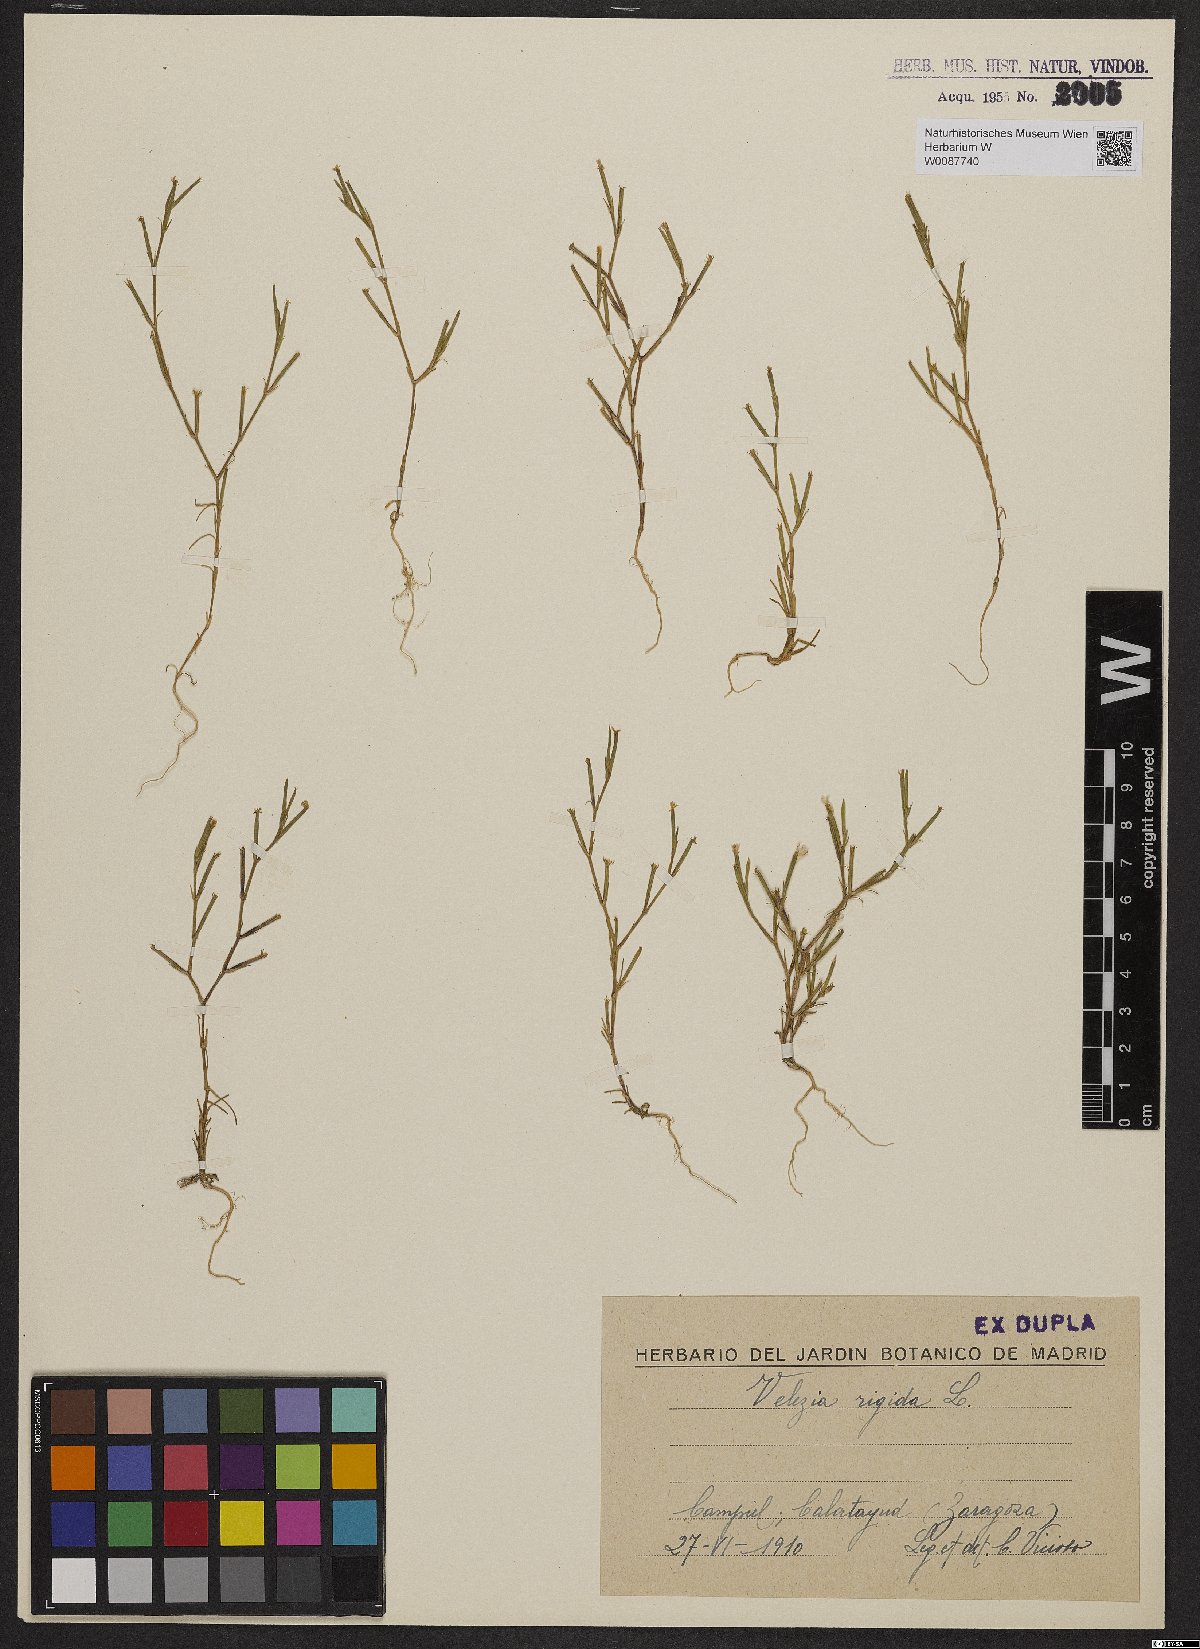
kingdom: Plantae
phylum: Tracheophyta
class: Magnoliopsida
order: Caryophyllales
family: Caryophyllaceae
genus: Dianthus
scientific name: Dianthus nudiflorus
